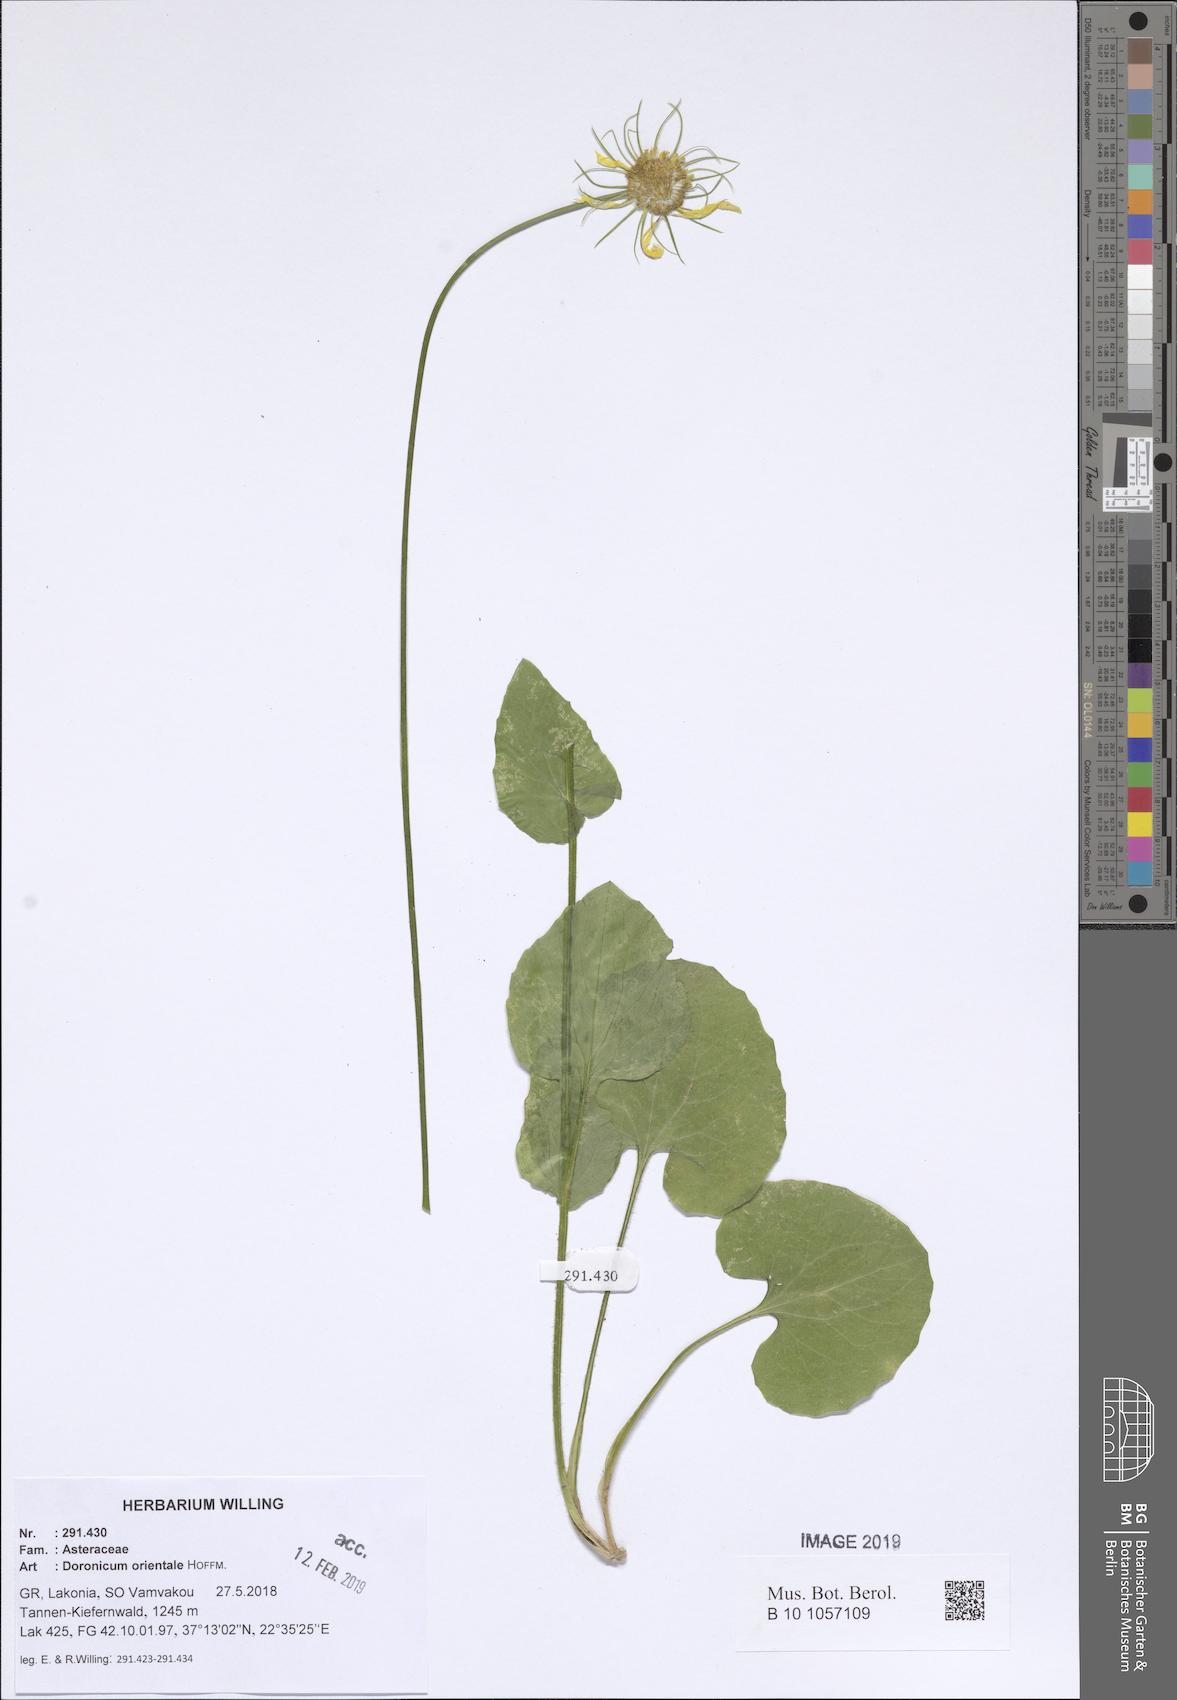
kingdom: Plantae
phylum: Tracheophyta
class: Magnoliopsida
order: Asterales
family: Asteraceae
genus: Doronicum
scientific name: Doronicum orientale
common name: Oriental leopard's-bane
